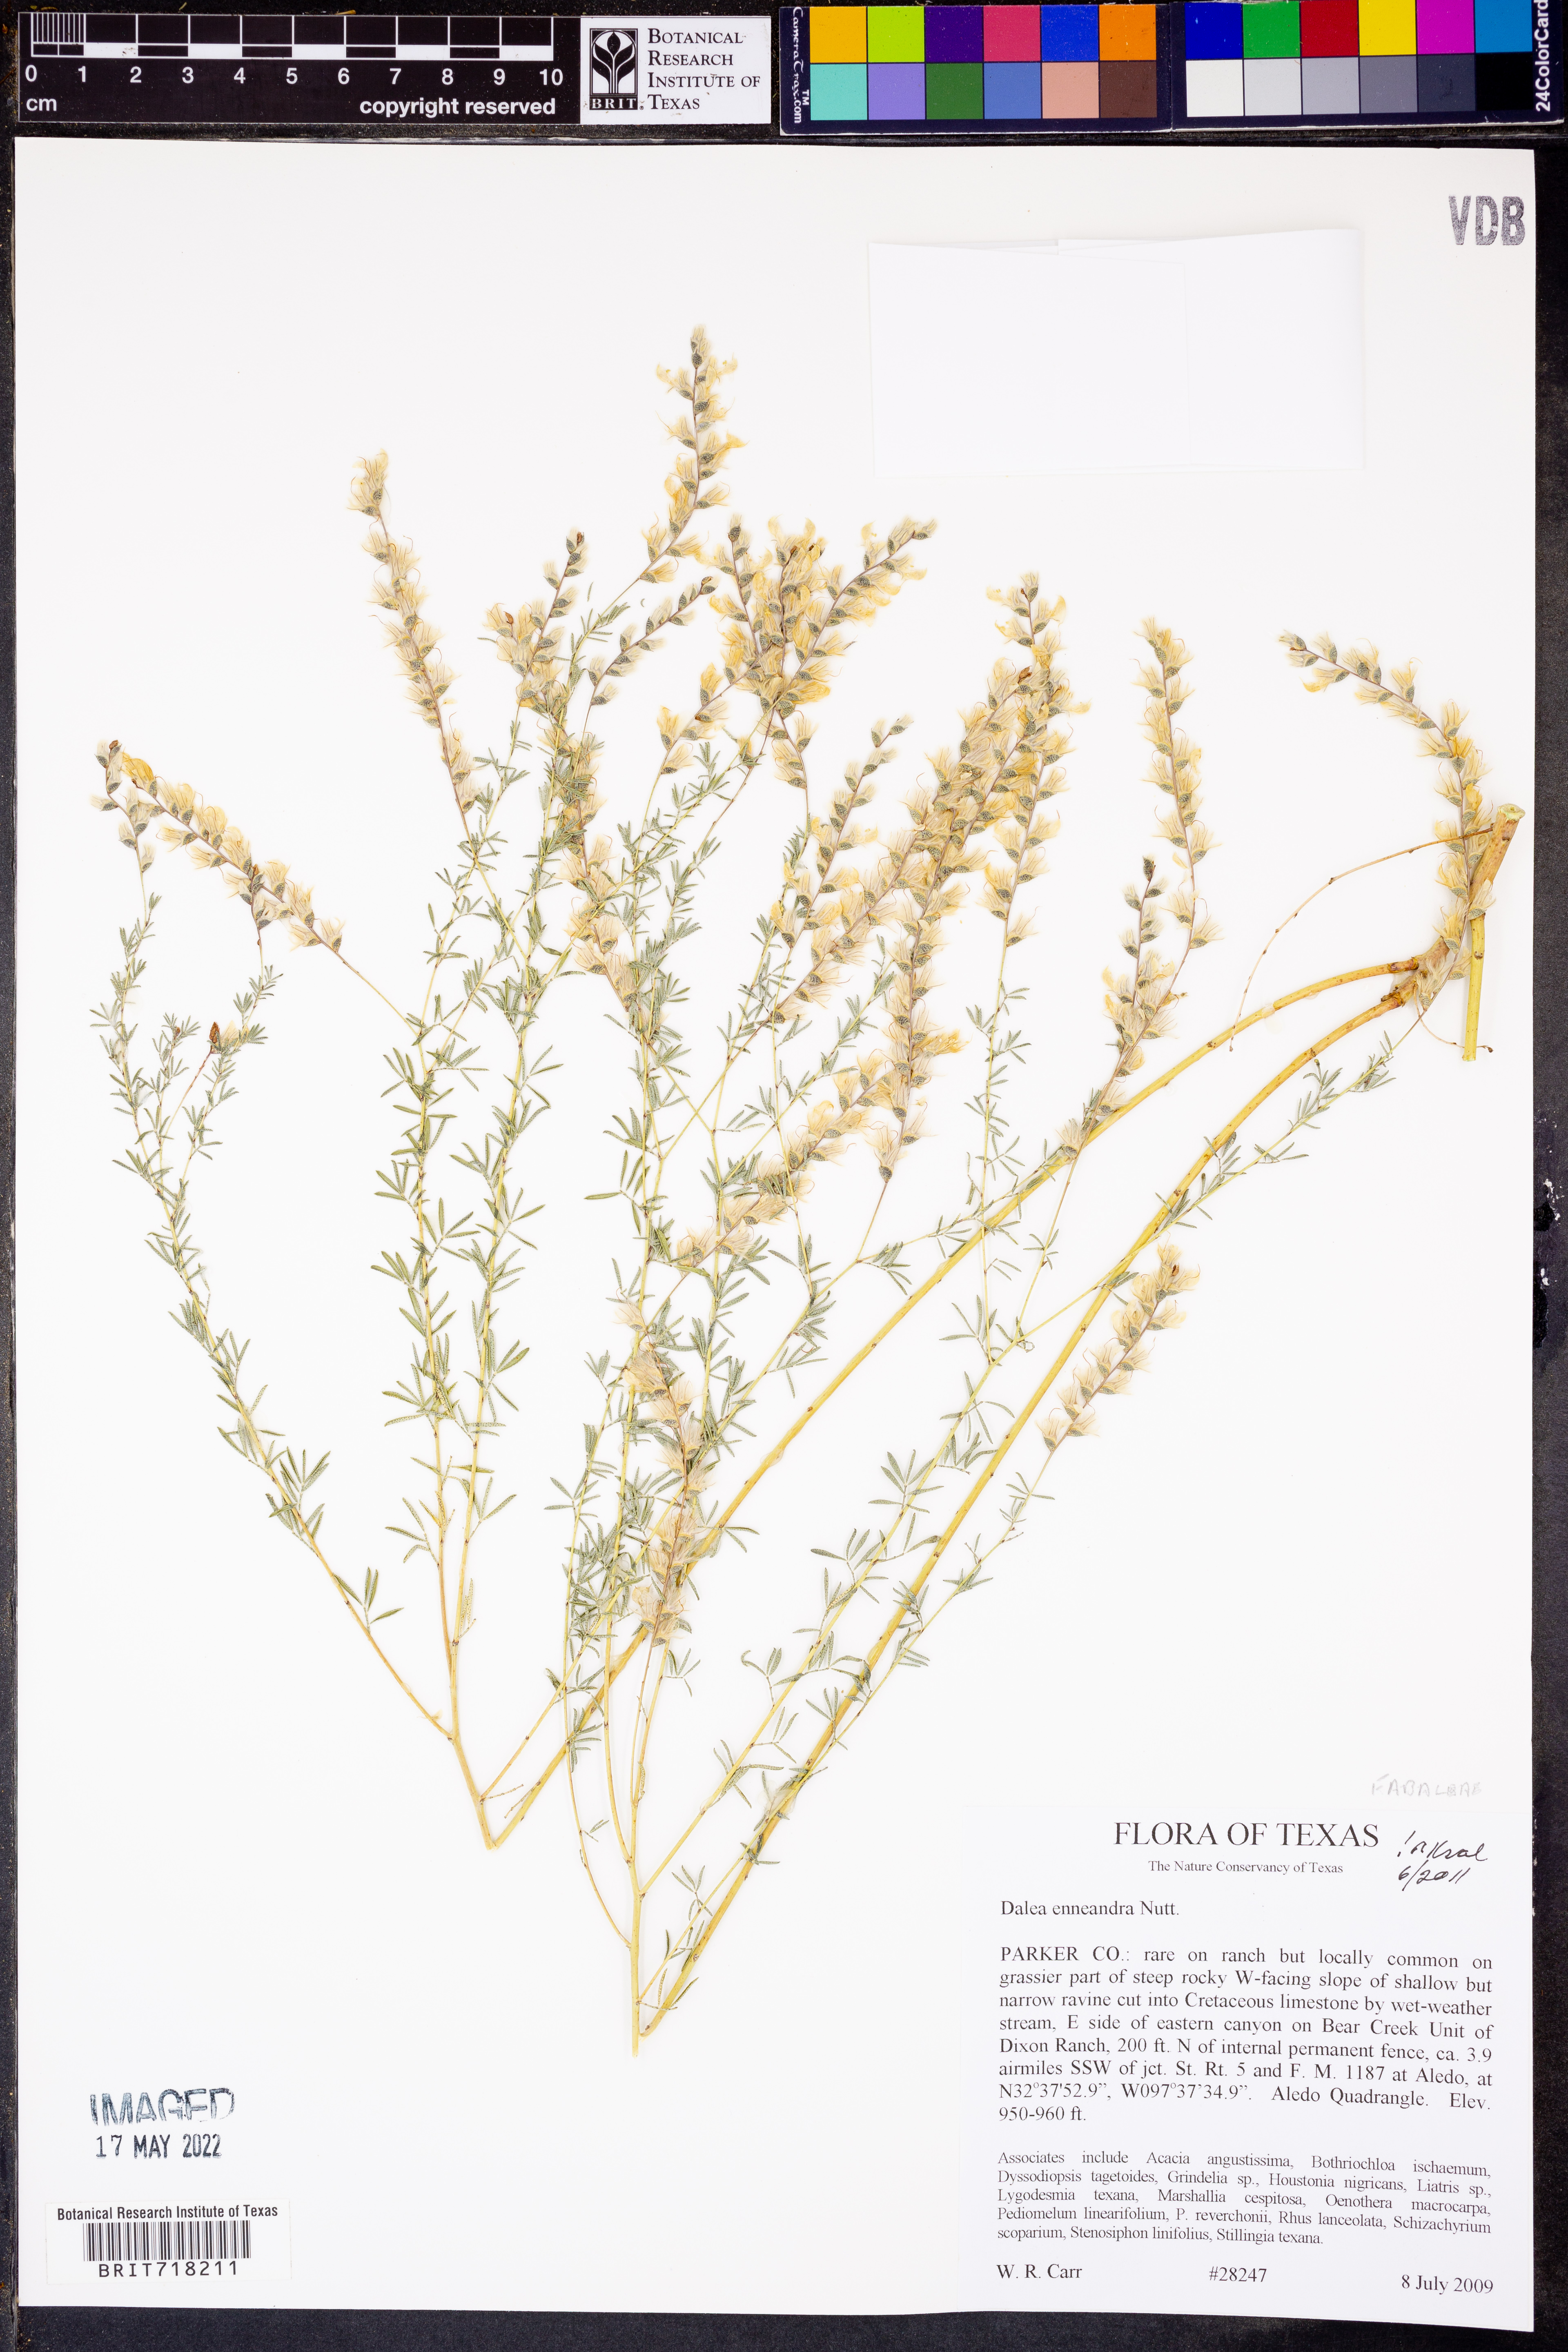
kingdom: Plantae
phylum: Tracheophyta
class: Magnoliopsida
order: Fabales
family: Fabaceae
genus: Dalea
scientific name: Dalea enneandra
